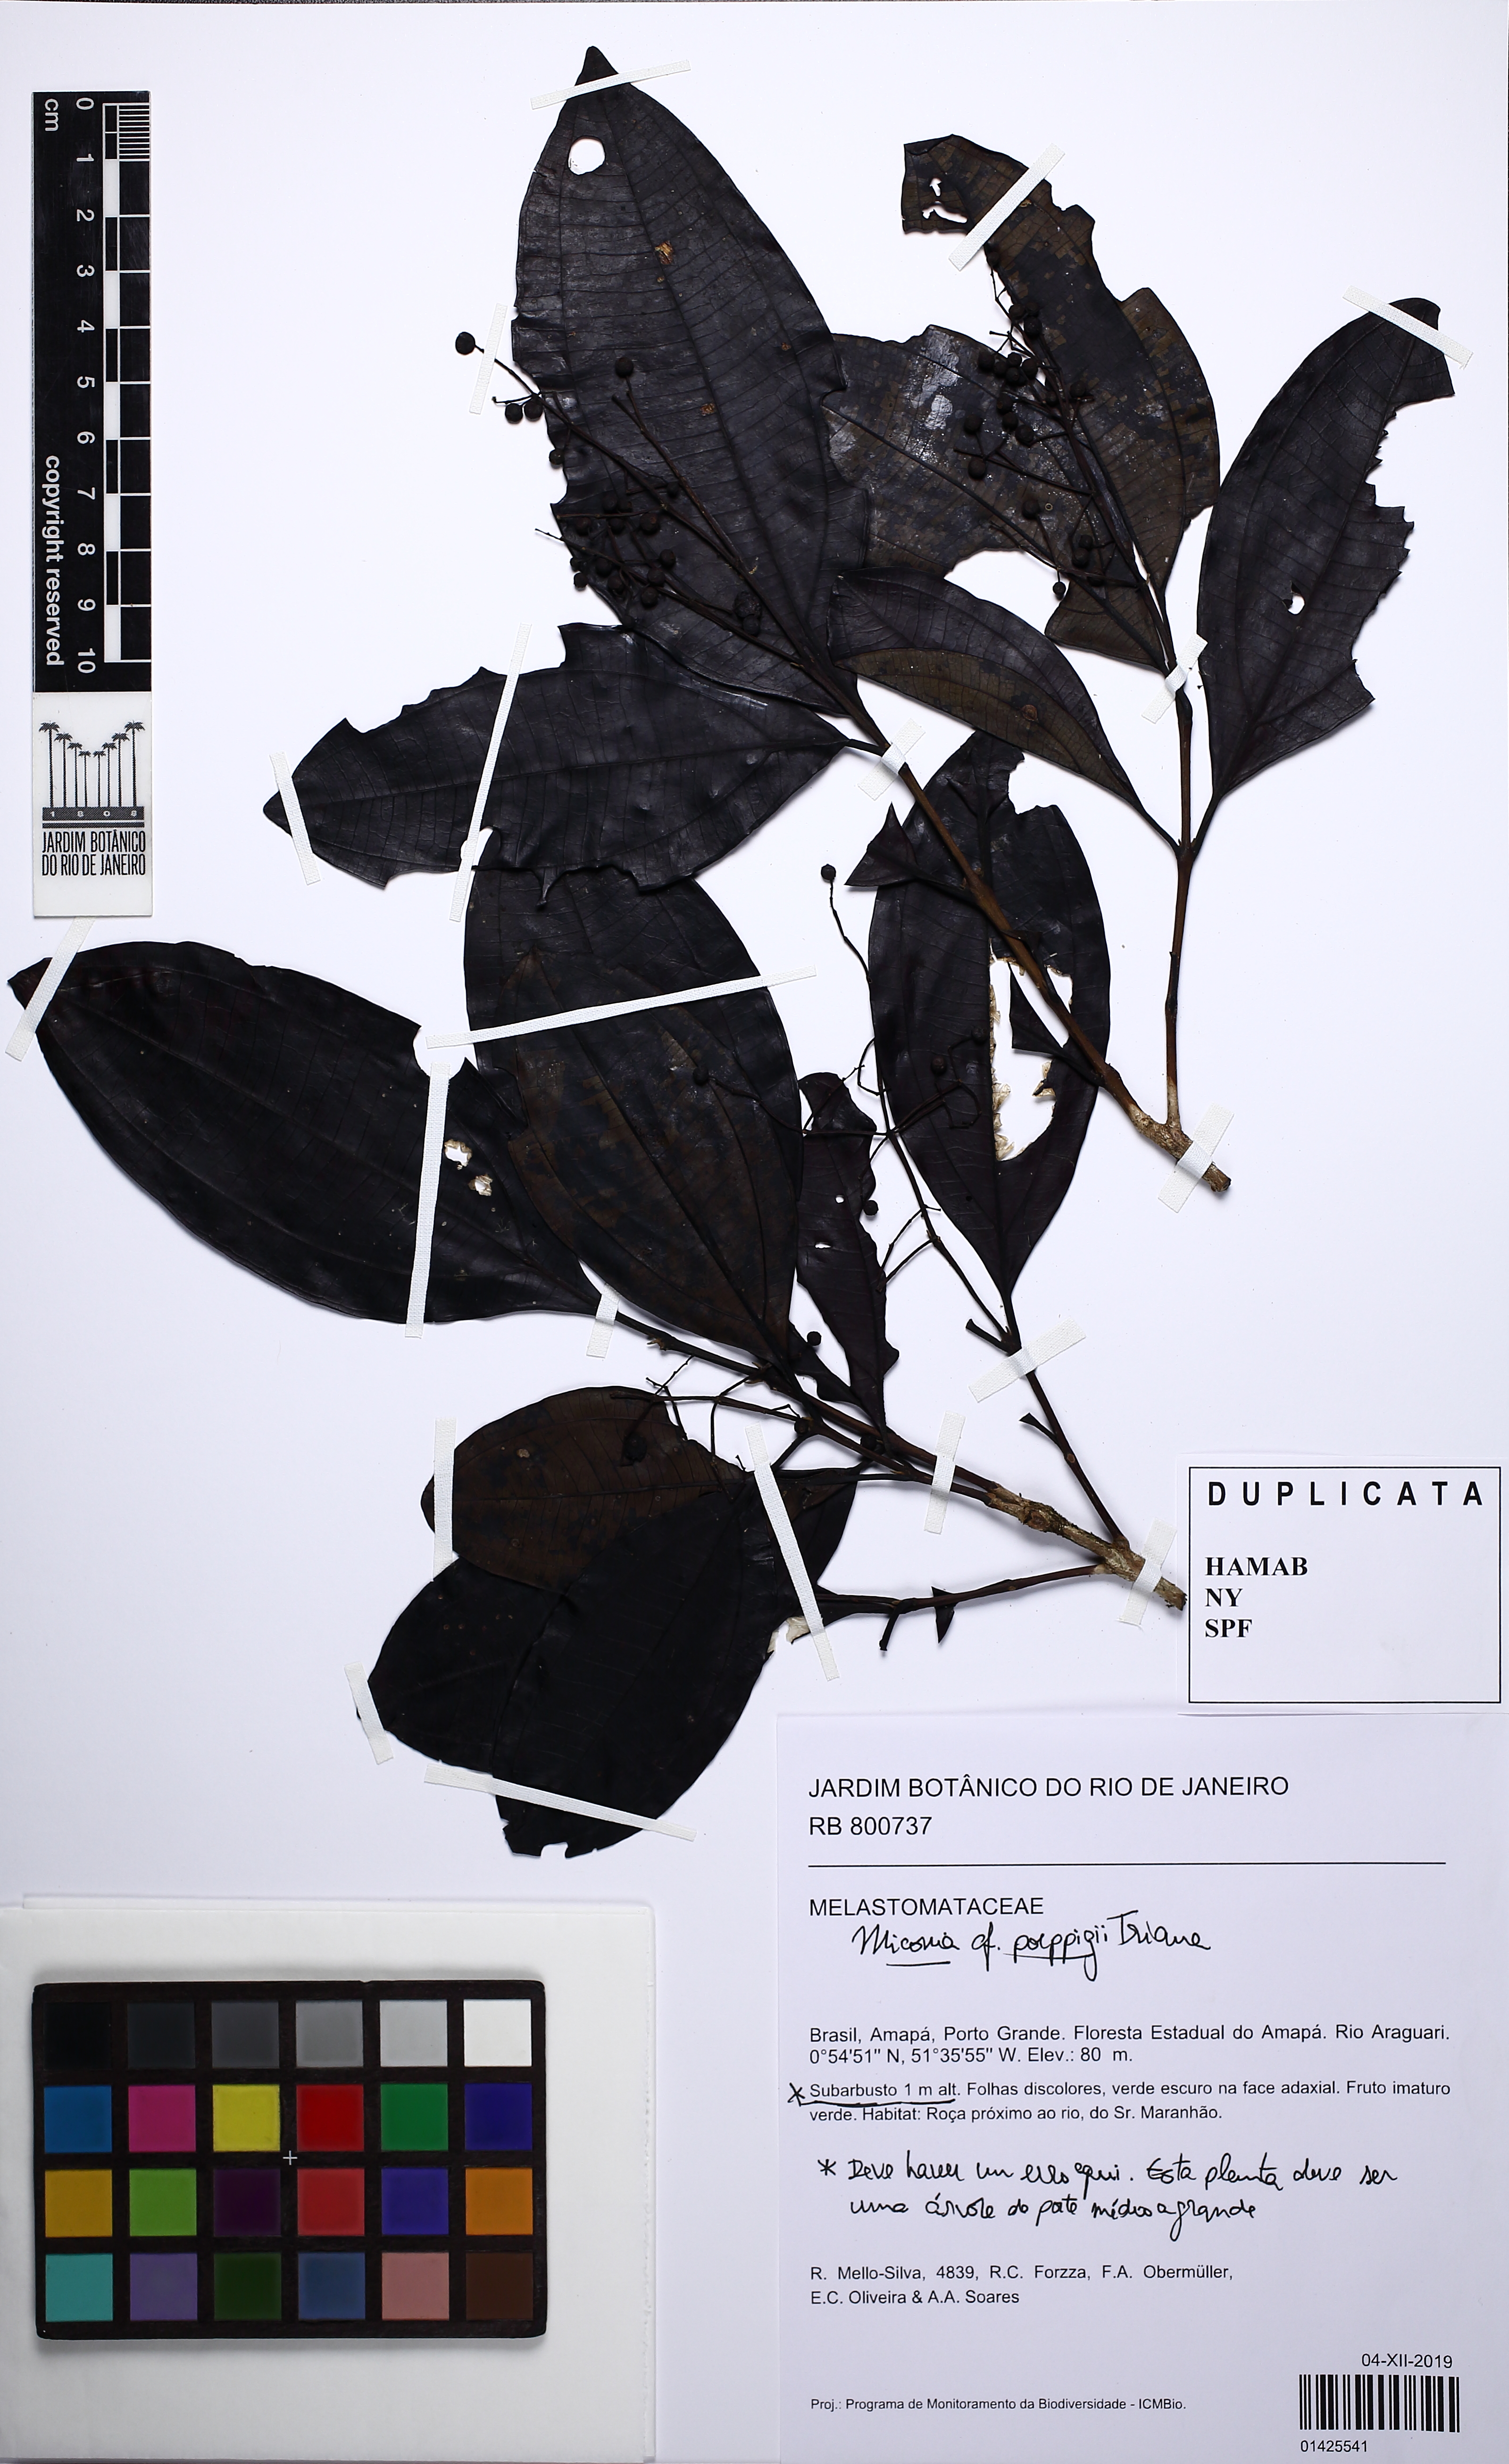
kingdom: Plantae
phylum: Tracheophyta
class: Magnoliopsida
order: Myrtales
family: Melastomataceae
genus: Miconia
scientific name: Miconia poeppigii
